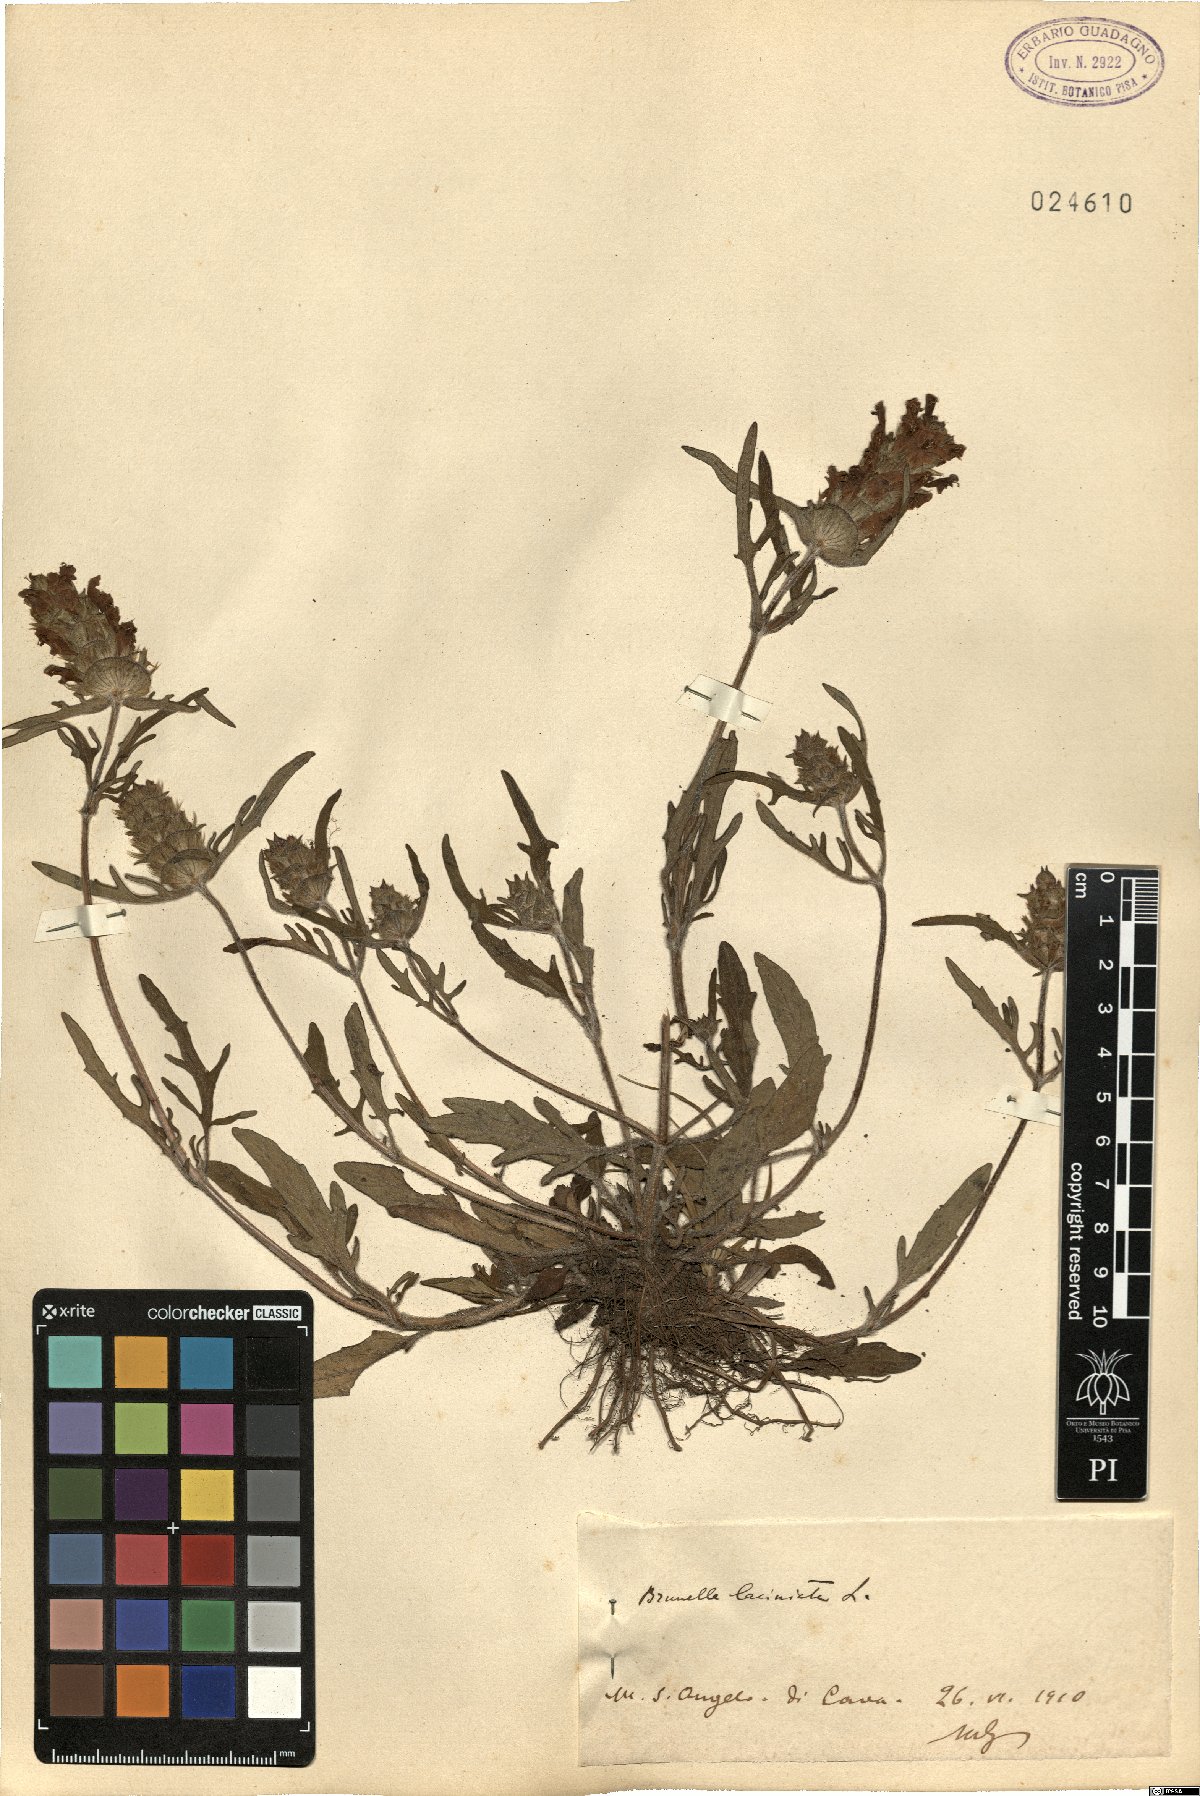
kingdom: Plantae
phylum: Tracheophyta
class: Magnoliopsida
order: Lamiales
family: Lamiaceae
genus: Prunella
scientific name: Prunella laciniata
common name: Cut-leaved selfheal
